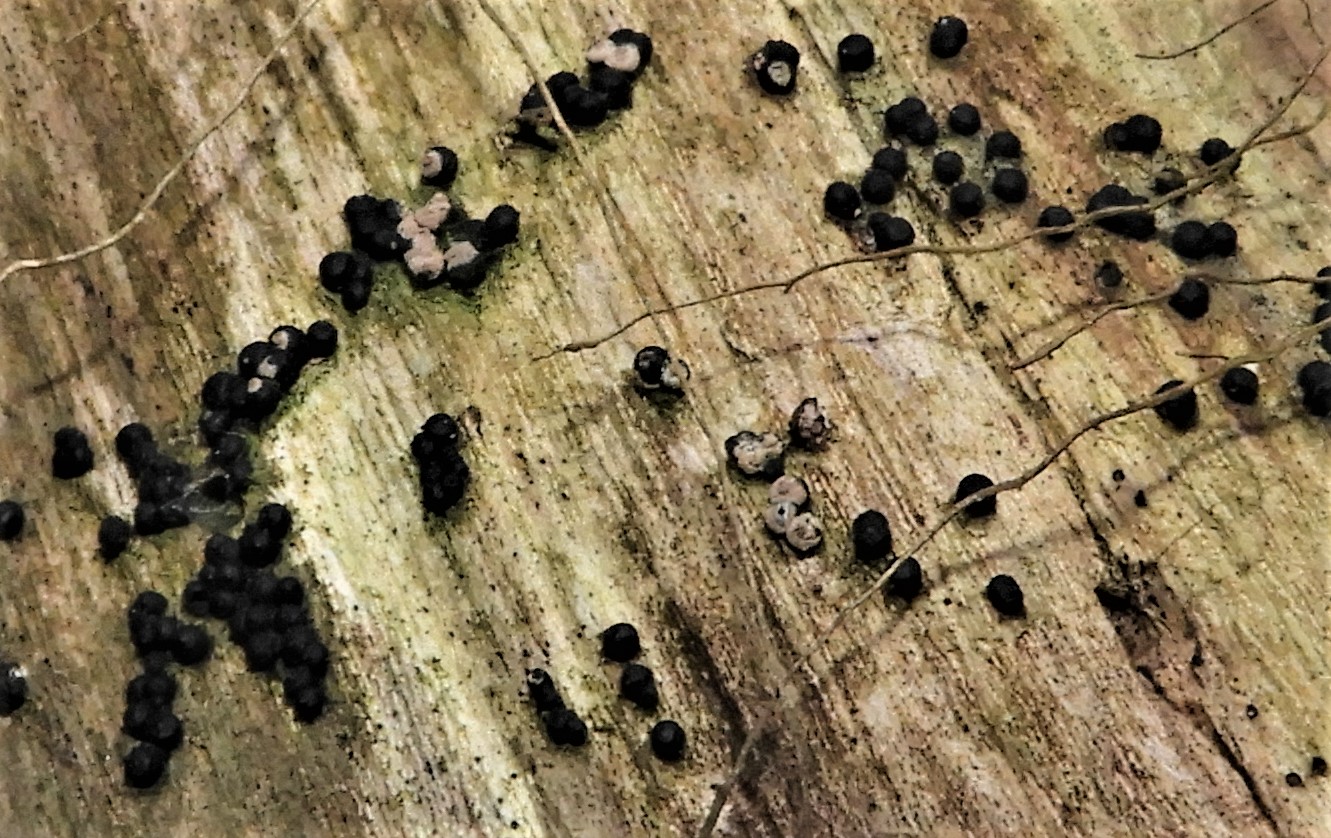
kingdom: Fungi
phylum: Ascomycota
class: Sordariomycetes
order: Xylariales
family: Xylariaceae
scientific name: Xylariaceae
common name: stødsvampfamilien
